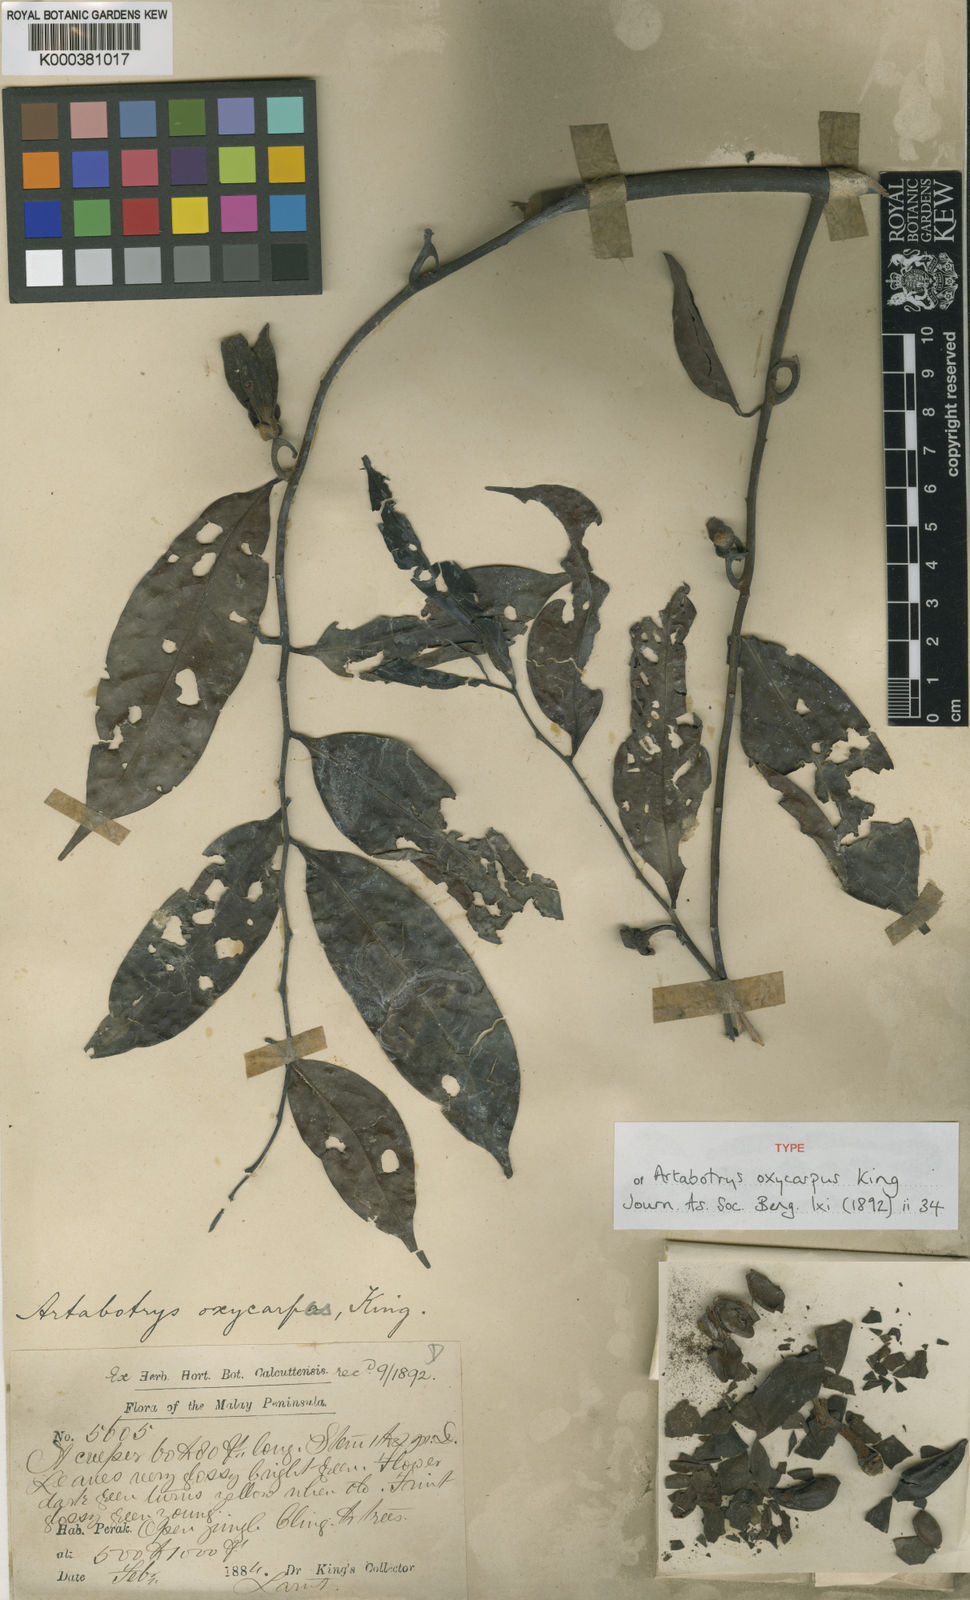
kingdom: Plantae
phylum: Tracheophyta
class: Magnoliopsida
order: Magnoliales
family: Annonaceae
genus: Artabotrys
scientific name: Artabotrys oxycarpus
